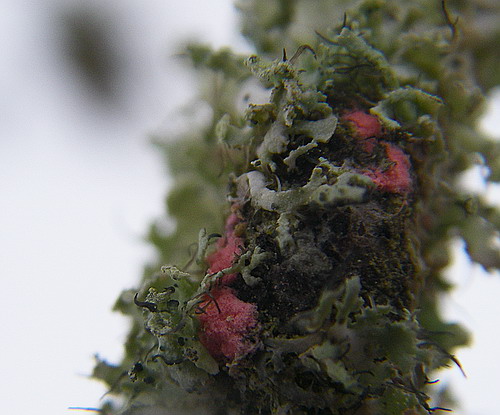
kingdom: Fungi
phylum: Ascomycota
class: Sordariomycetes
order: Hypocreales
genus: Illosporiopsis
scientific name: Illosporiopsis christiansenii
